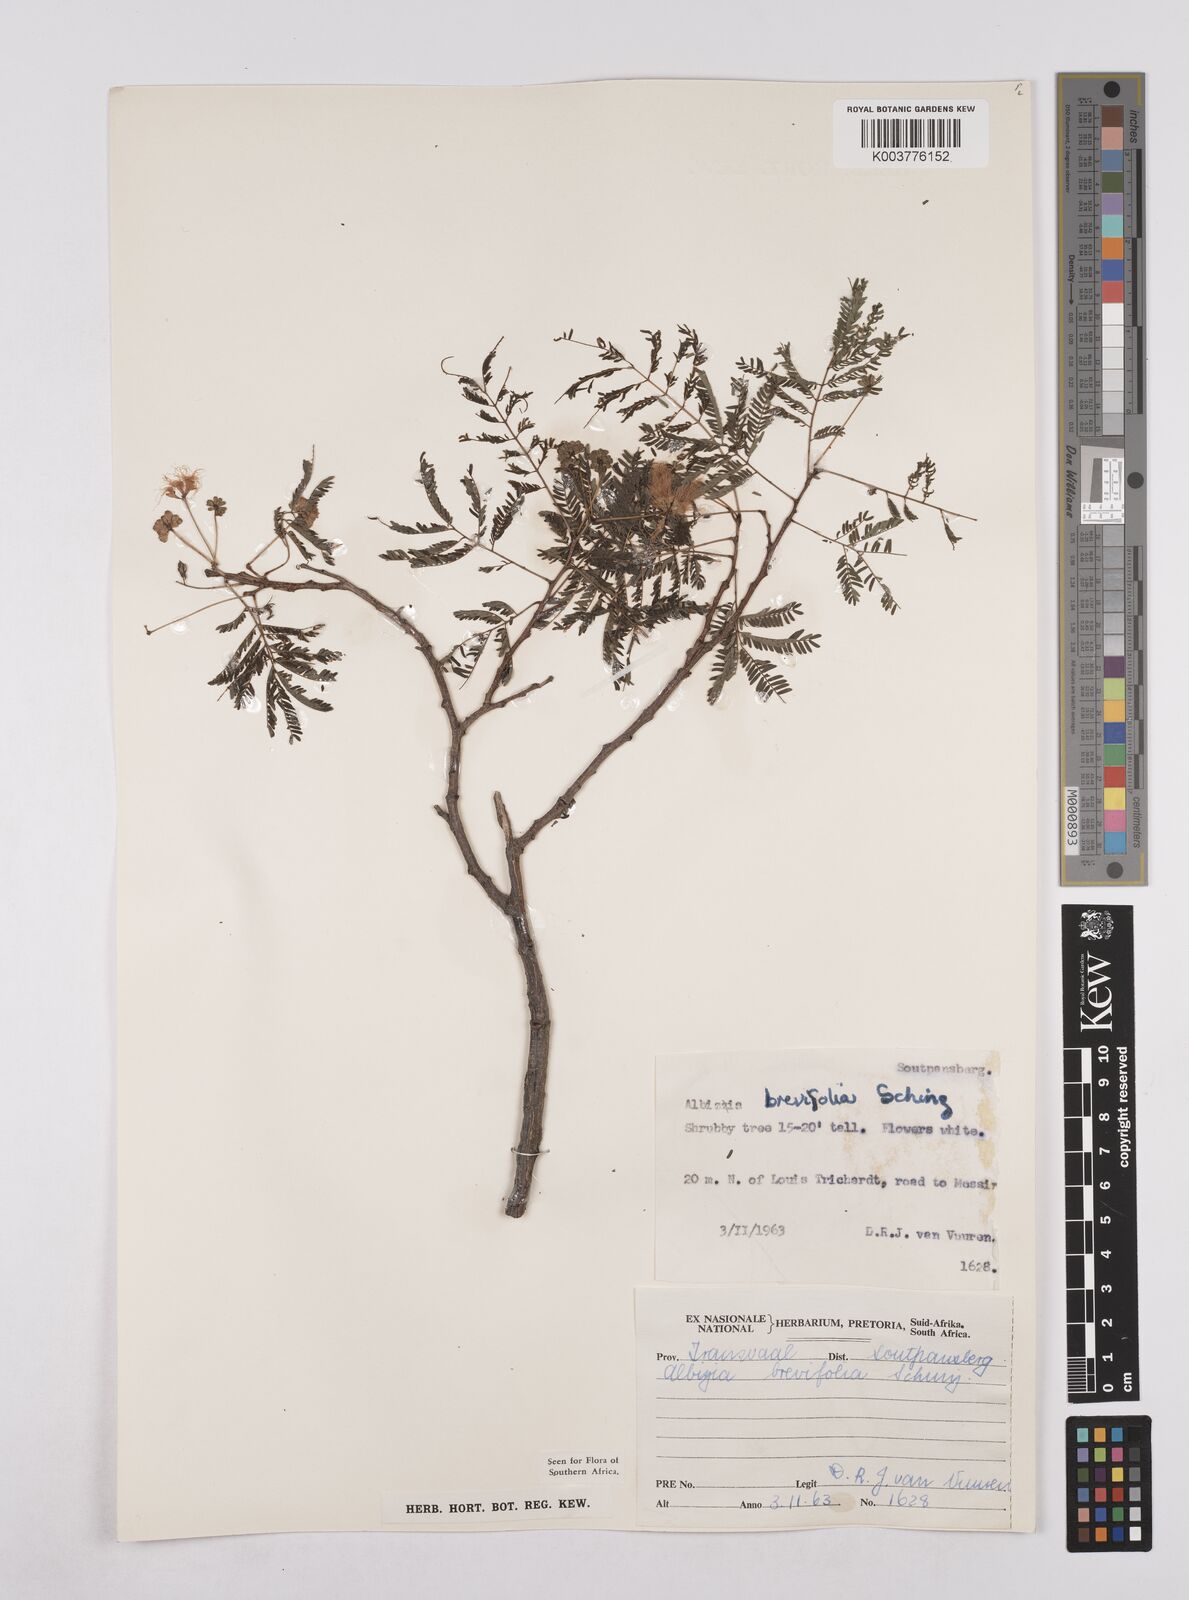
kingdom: Plantae
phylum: Tracheophyta
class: Magnoliopsida
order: Fabales
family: Fabaceae
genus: Albizia
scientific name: Albizia brevifolia
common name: Rock false-thorn
